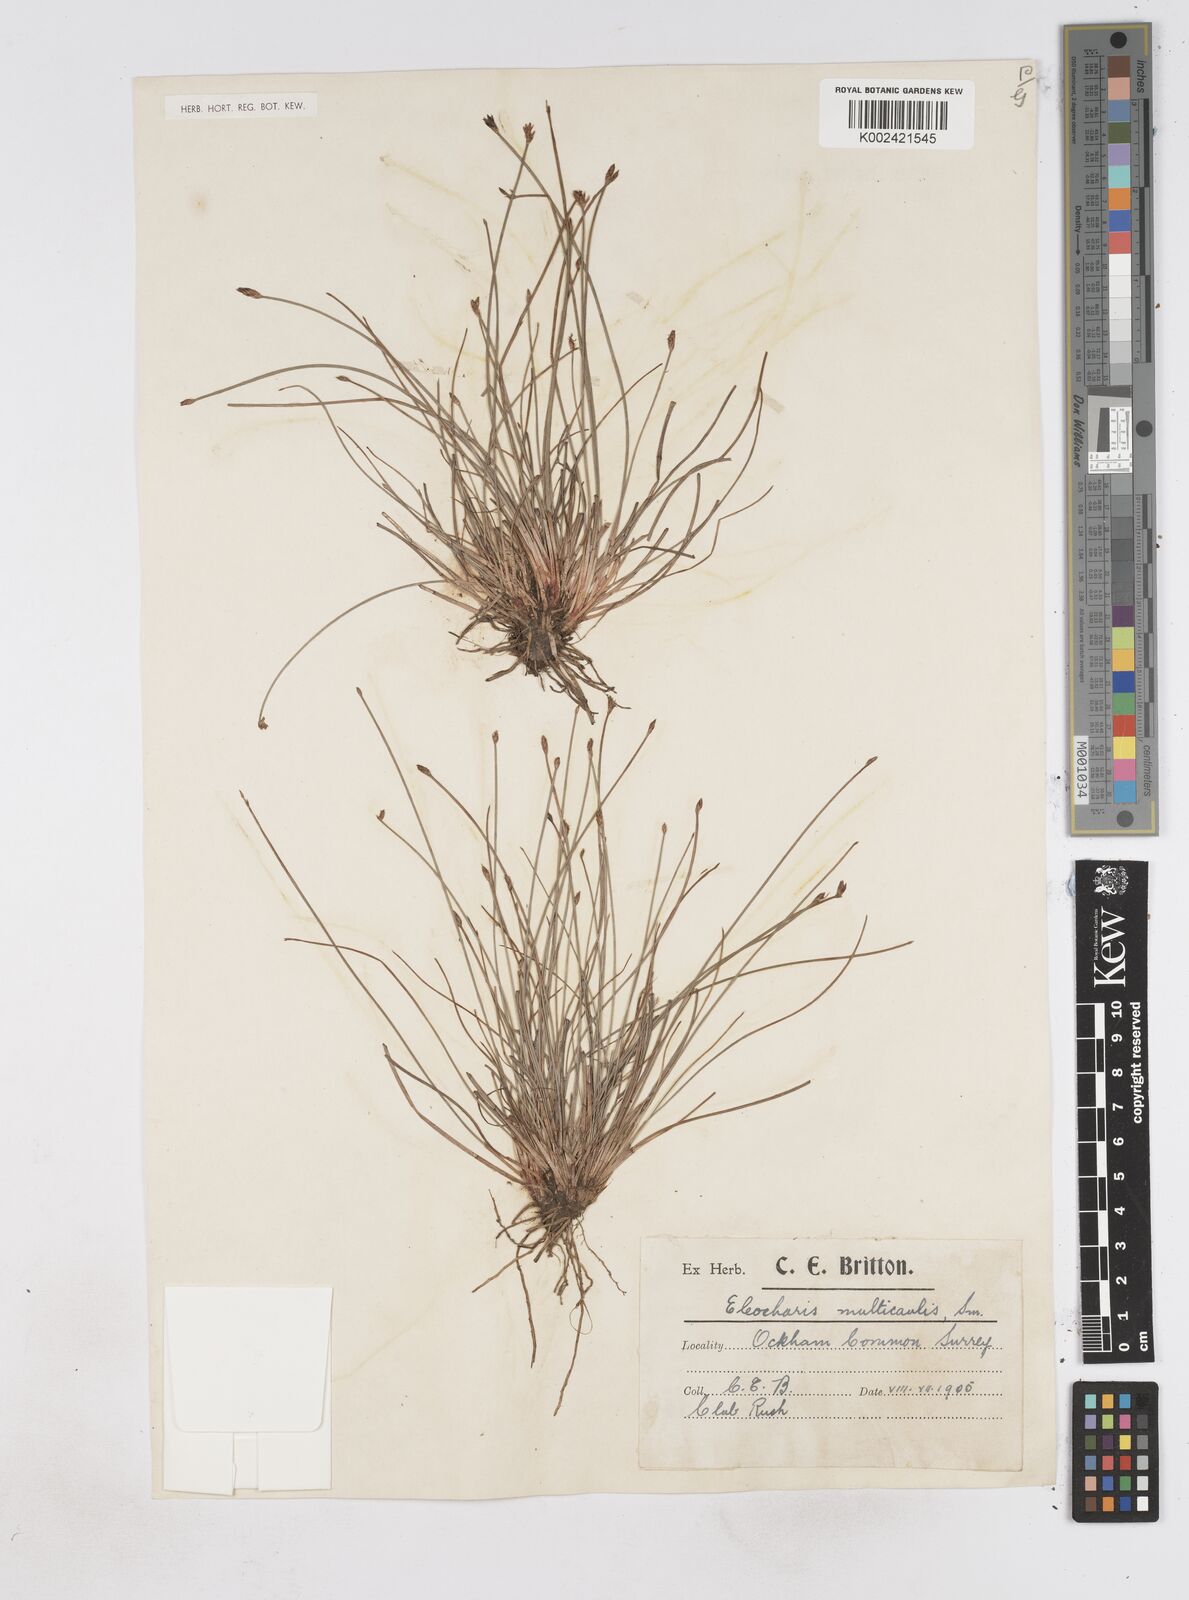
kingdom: Plantae
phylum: Tracheophyta
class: Liliopsida
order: Poales
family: Cyperaceae
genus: Eleocharis
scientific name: Eleocharis multicaulis
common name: Many-stalked spike-rush
